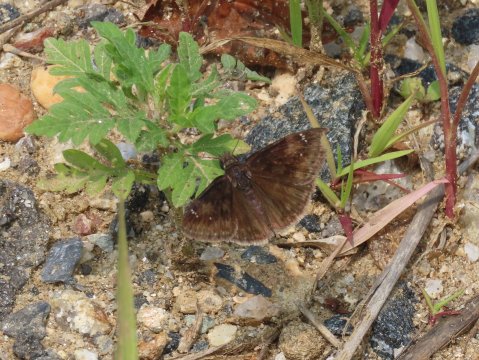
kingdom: Animalia
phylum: Arthropoda
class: Insecta
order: Lepidoptera
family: Hesperiidae
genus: Gesta
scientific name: Gesta
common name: Wild Indigo Duskywing
